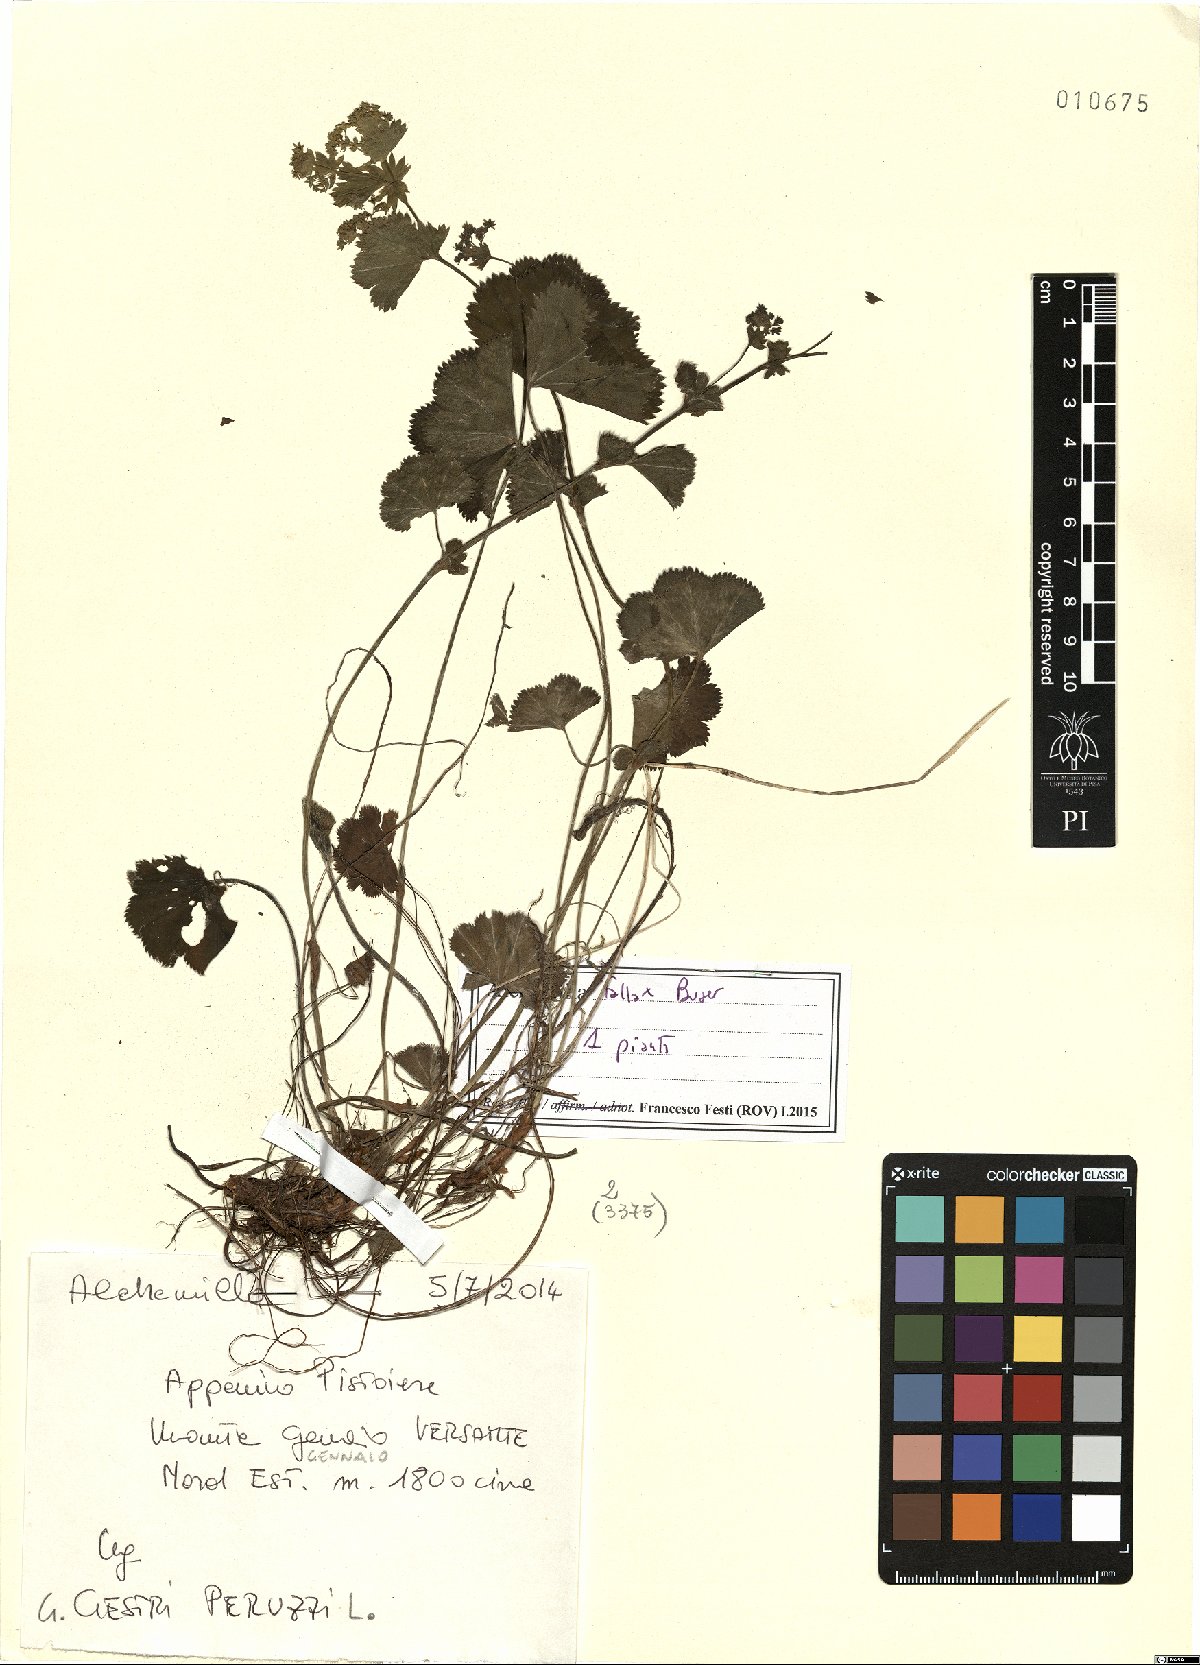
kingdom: Plantae
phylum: Tracheophyta
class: Magnoliopsida
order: Rosales
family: Rosaceae
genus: Alchemilla
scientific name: Alchemilla fallax
